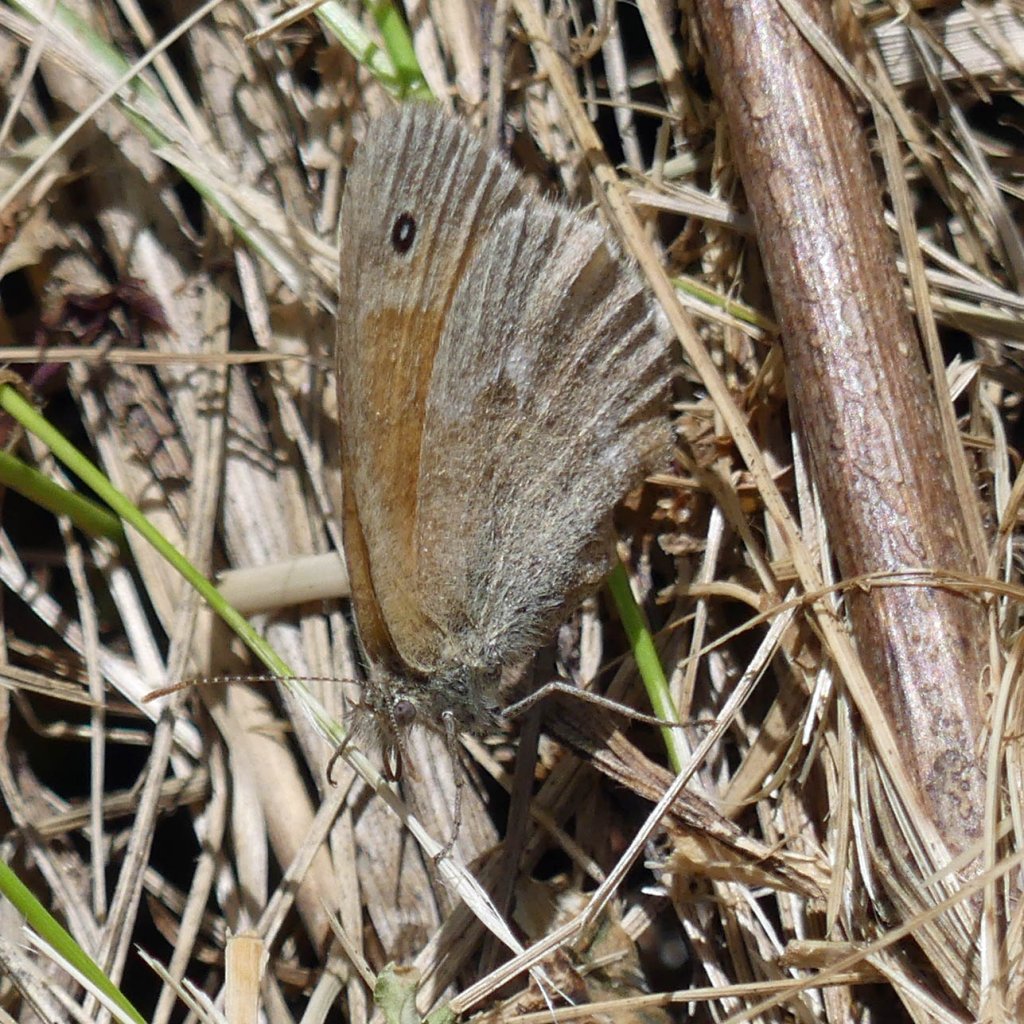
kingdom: Animalia
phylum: Arthropoda
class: Insecta
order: Lepidoptera
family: Nymphalidae
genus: Coenonympha
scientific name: Coenonympha tullia
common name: Large Heath
